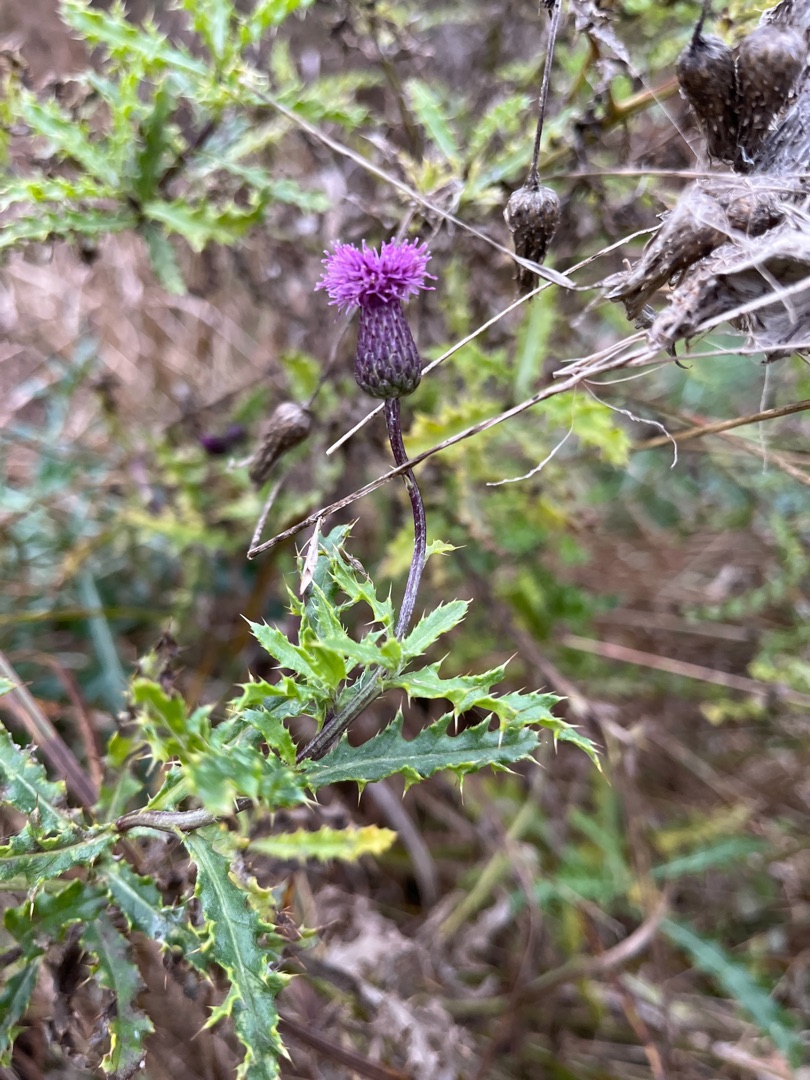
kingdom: Plantae
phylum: Tracheophyta
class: Magnoliopsida
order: Asterales
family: Asteraceae
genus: Cirsium
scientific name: Cirsium arvense
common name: Ager-tidsel
